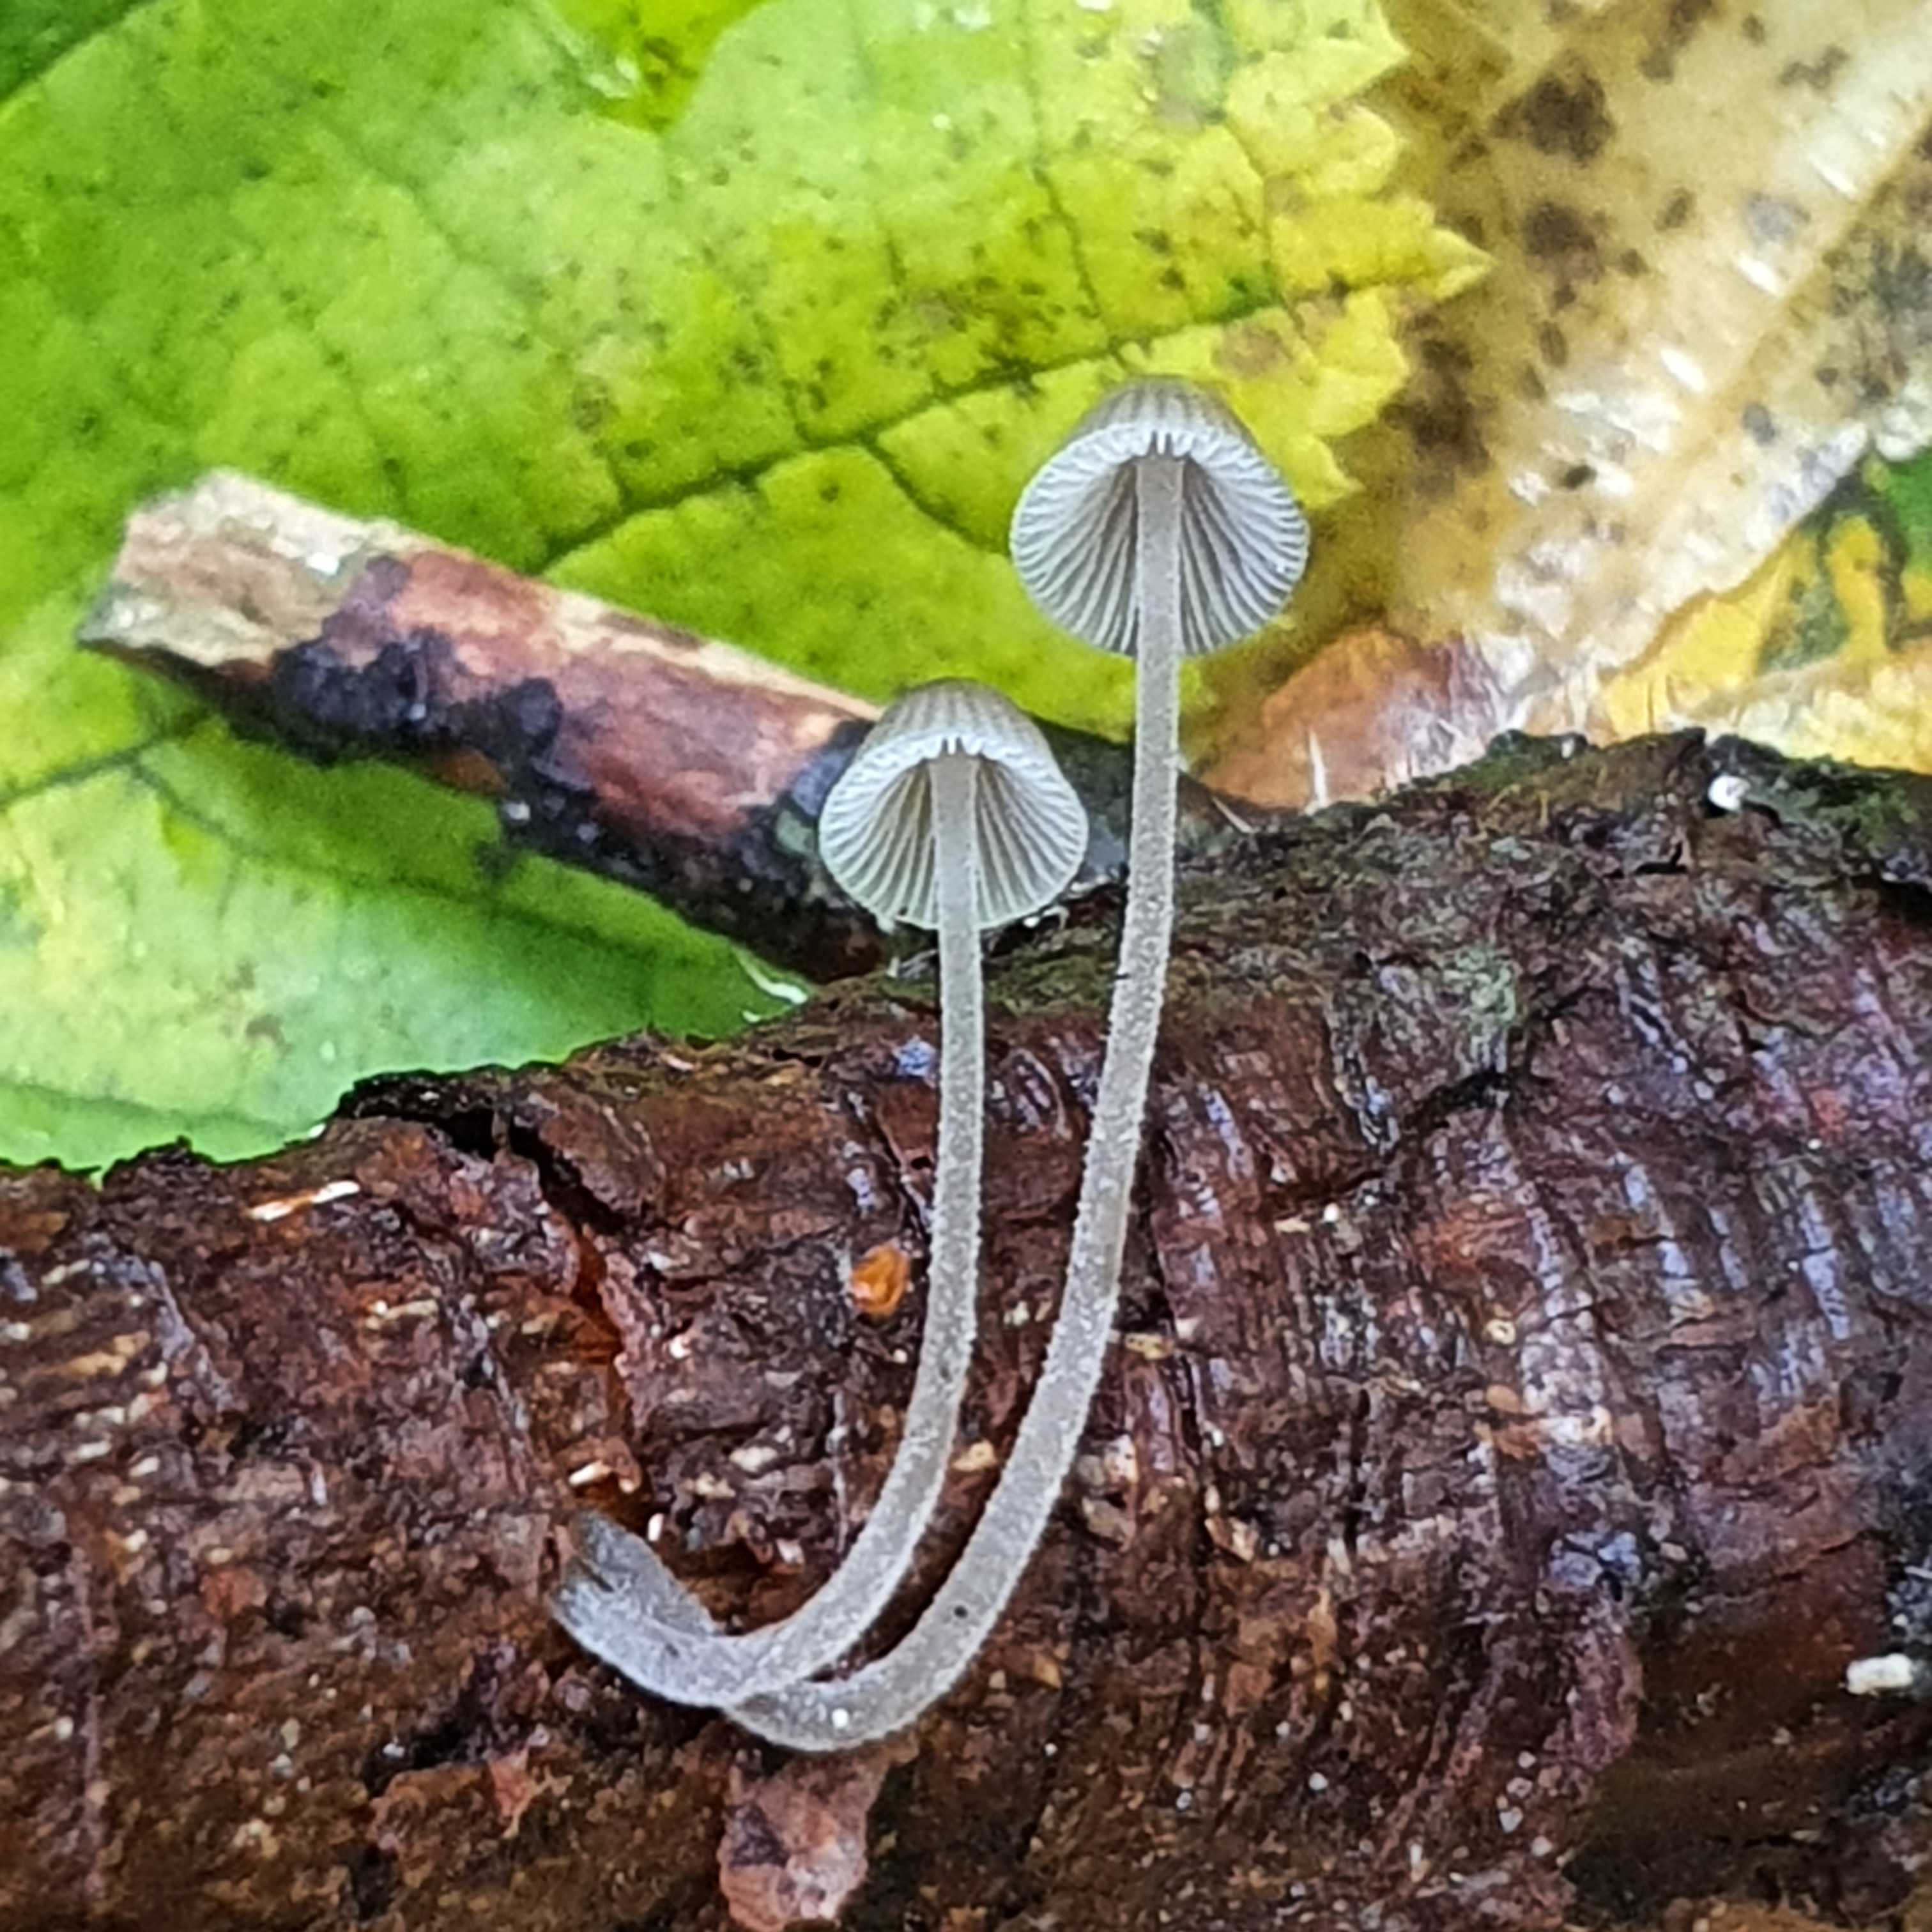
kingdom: Fungi
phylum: Basidiomycota
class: Agaricomycetes
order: Agaricales
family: Mycenaceae
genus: Mycena
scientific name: Mycena amicta
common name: iris-huesvamp
